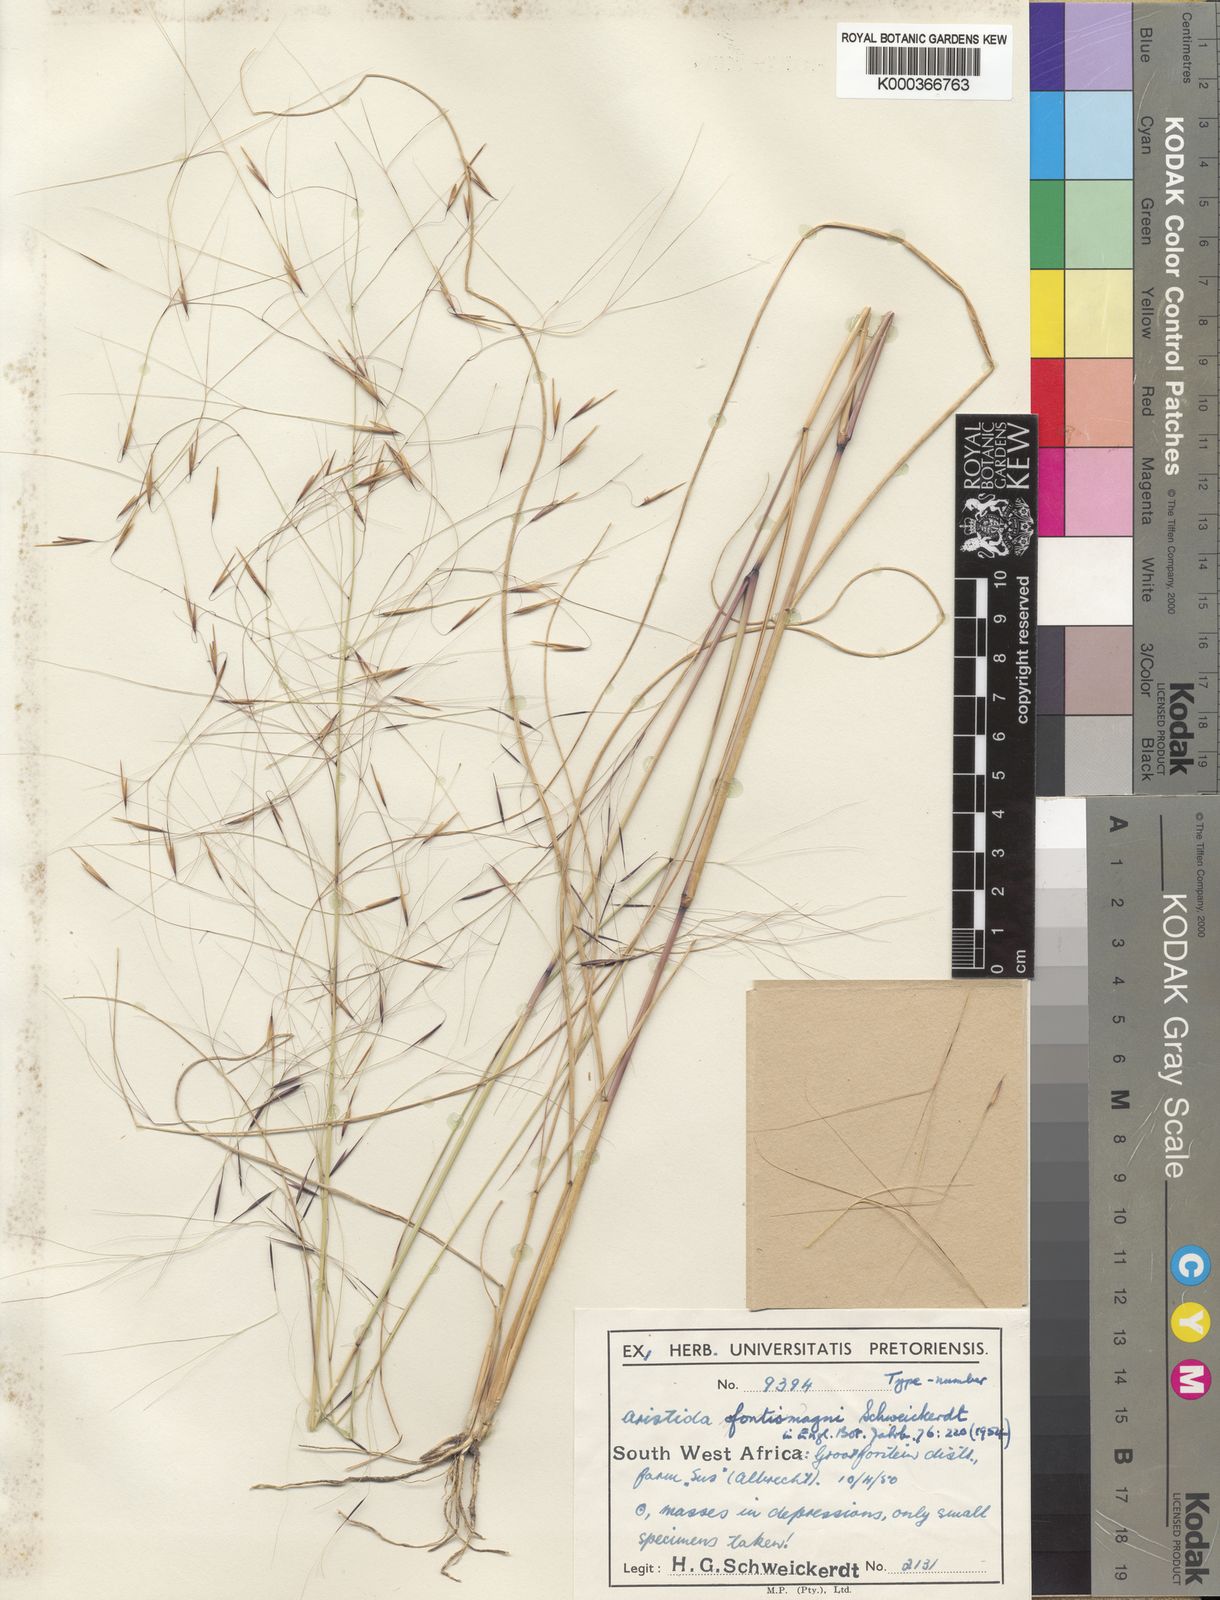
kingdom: Plantae
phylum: Tracheophyta
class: Liliopsida
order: Poales
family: Poaceae
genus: Aristida
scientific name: Aristida stipoides
